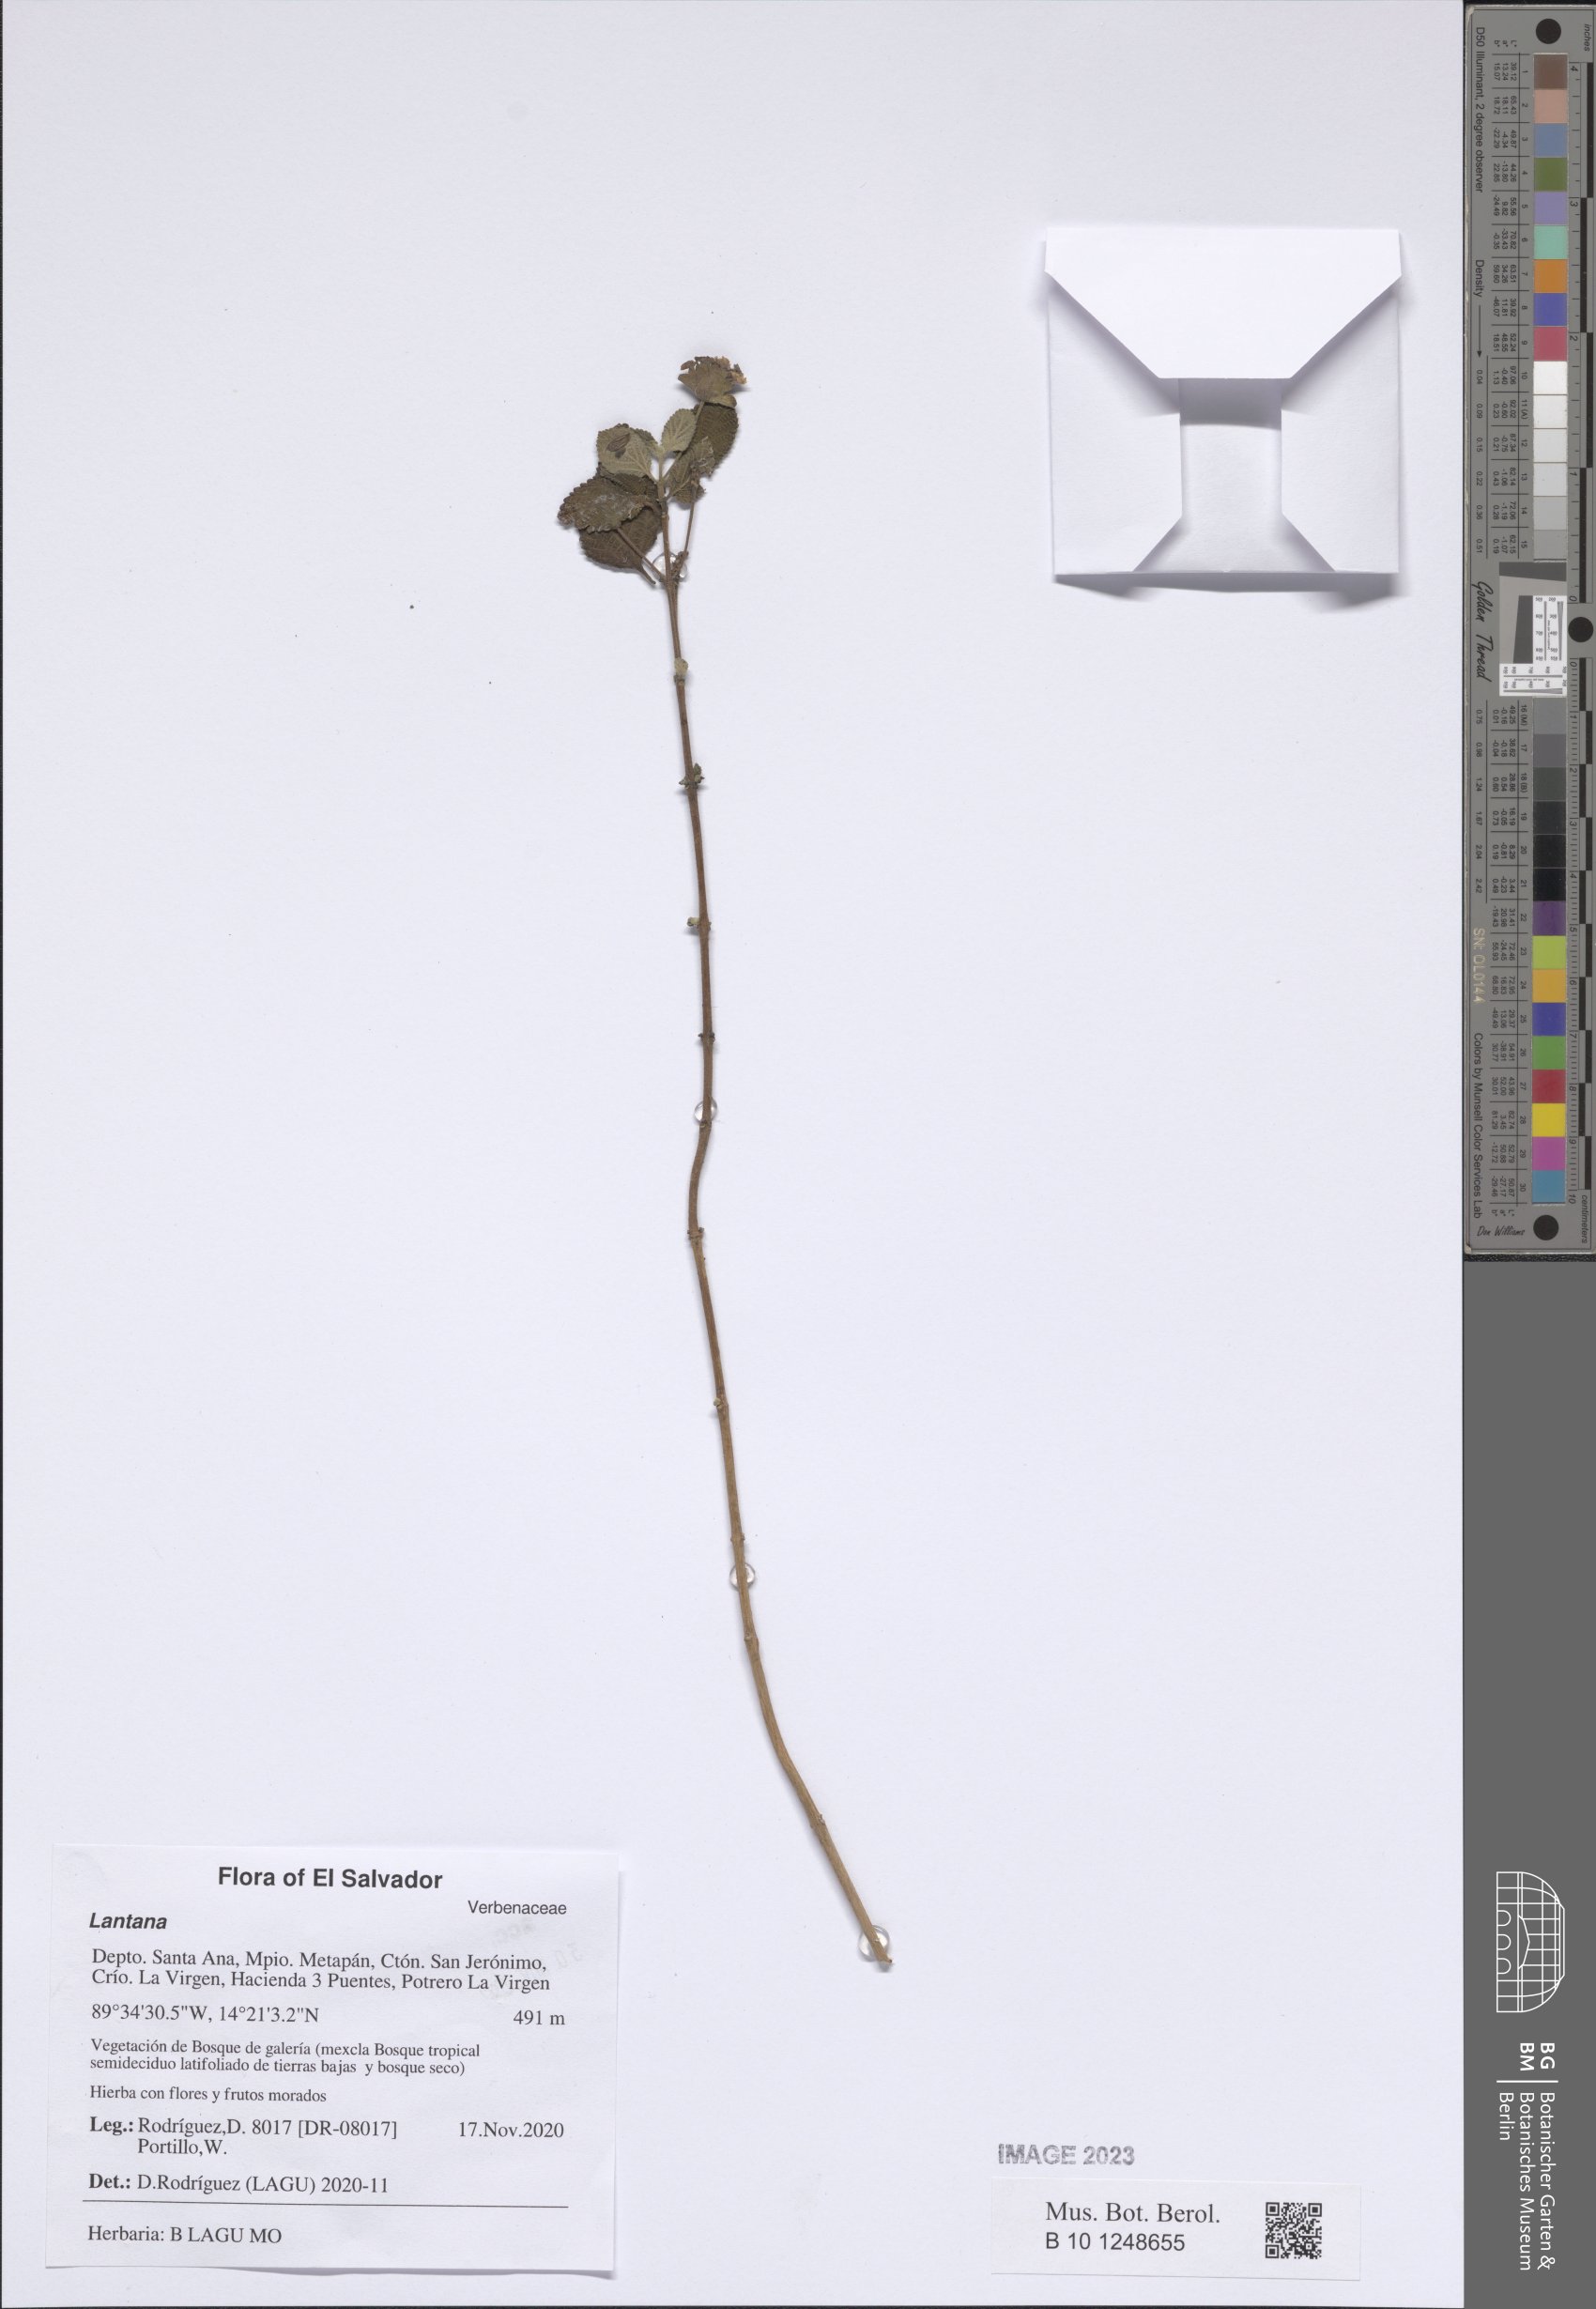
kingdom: Plantae
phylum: Tracheophyta
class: Magnoliopsida
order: Lamiales
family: Verbenaceae
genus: Lantana
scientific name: Lantana
